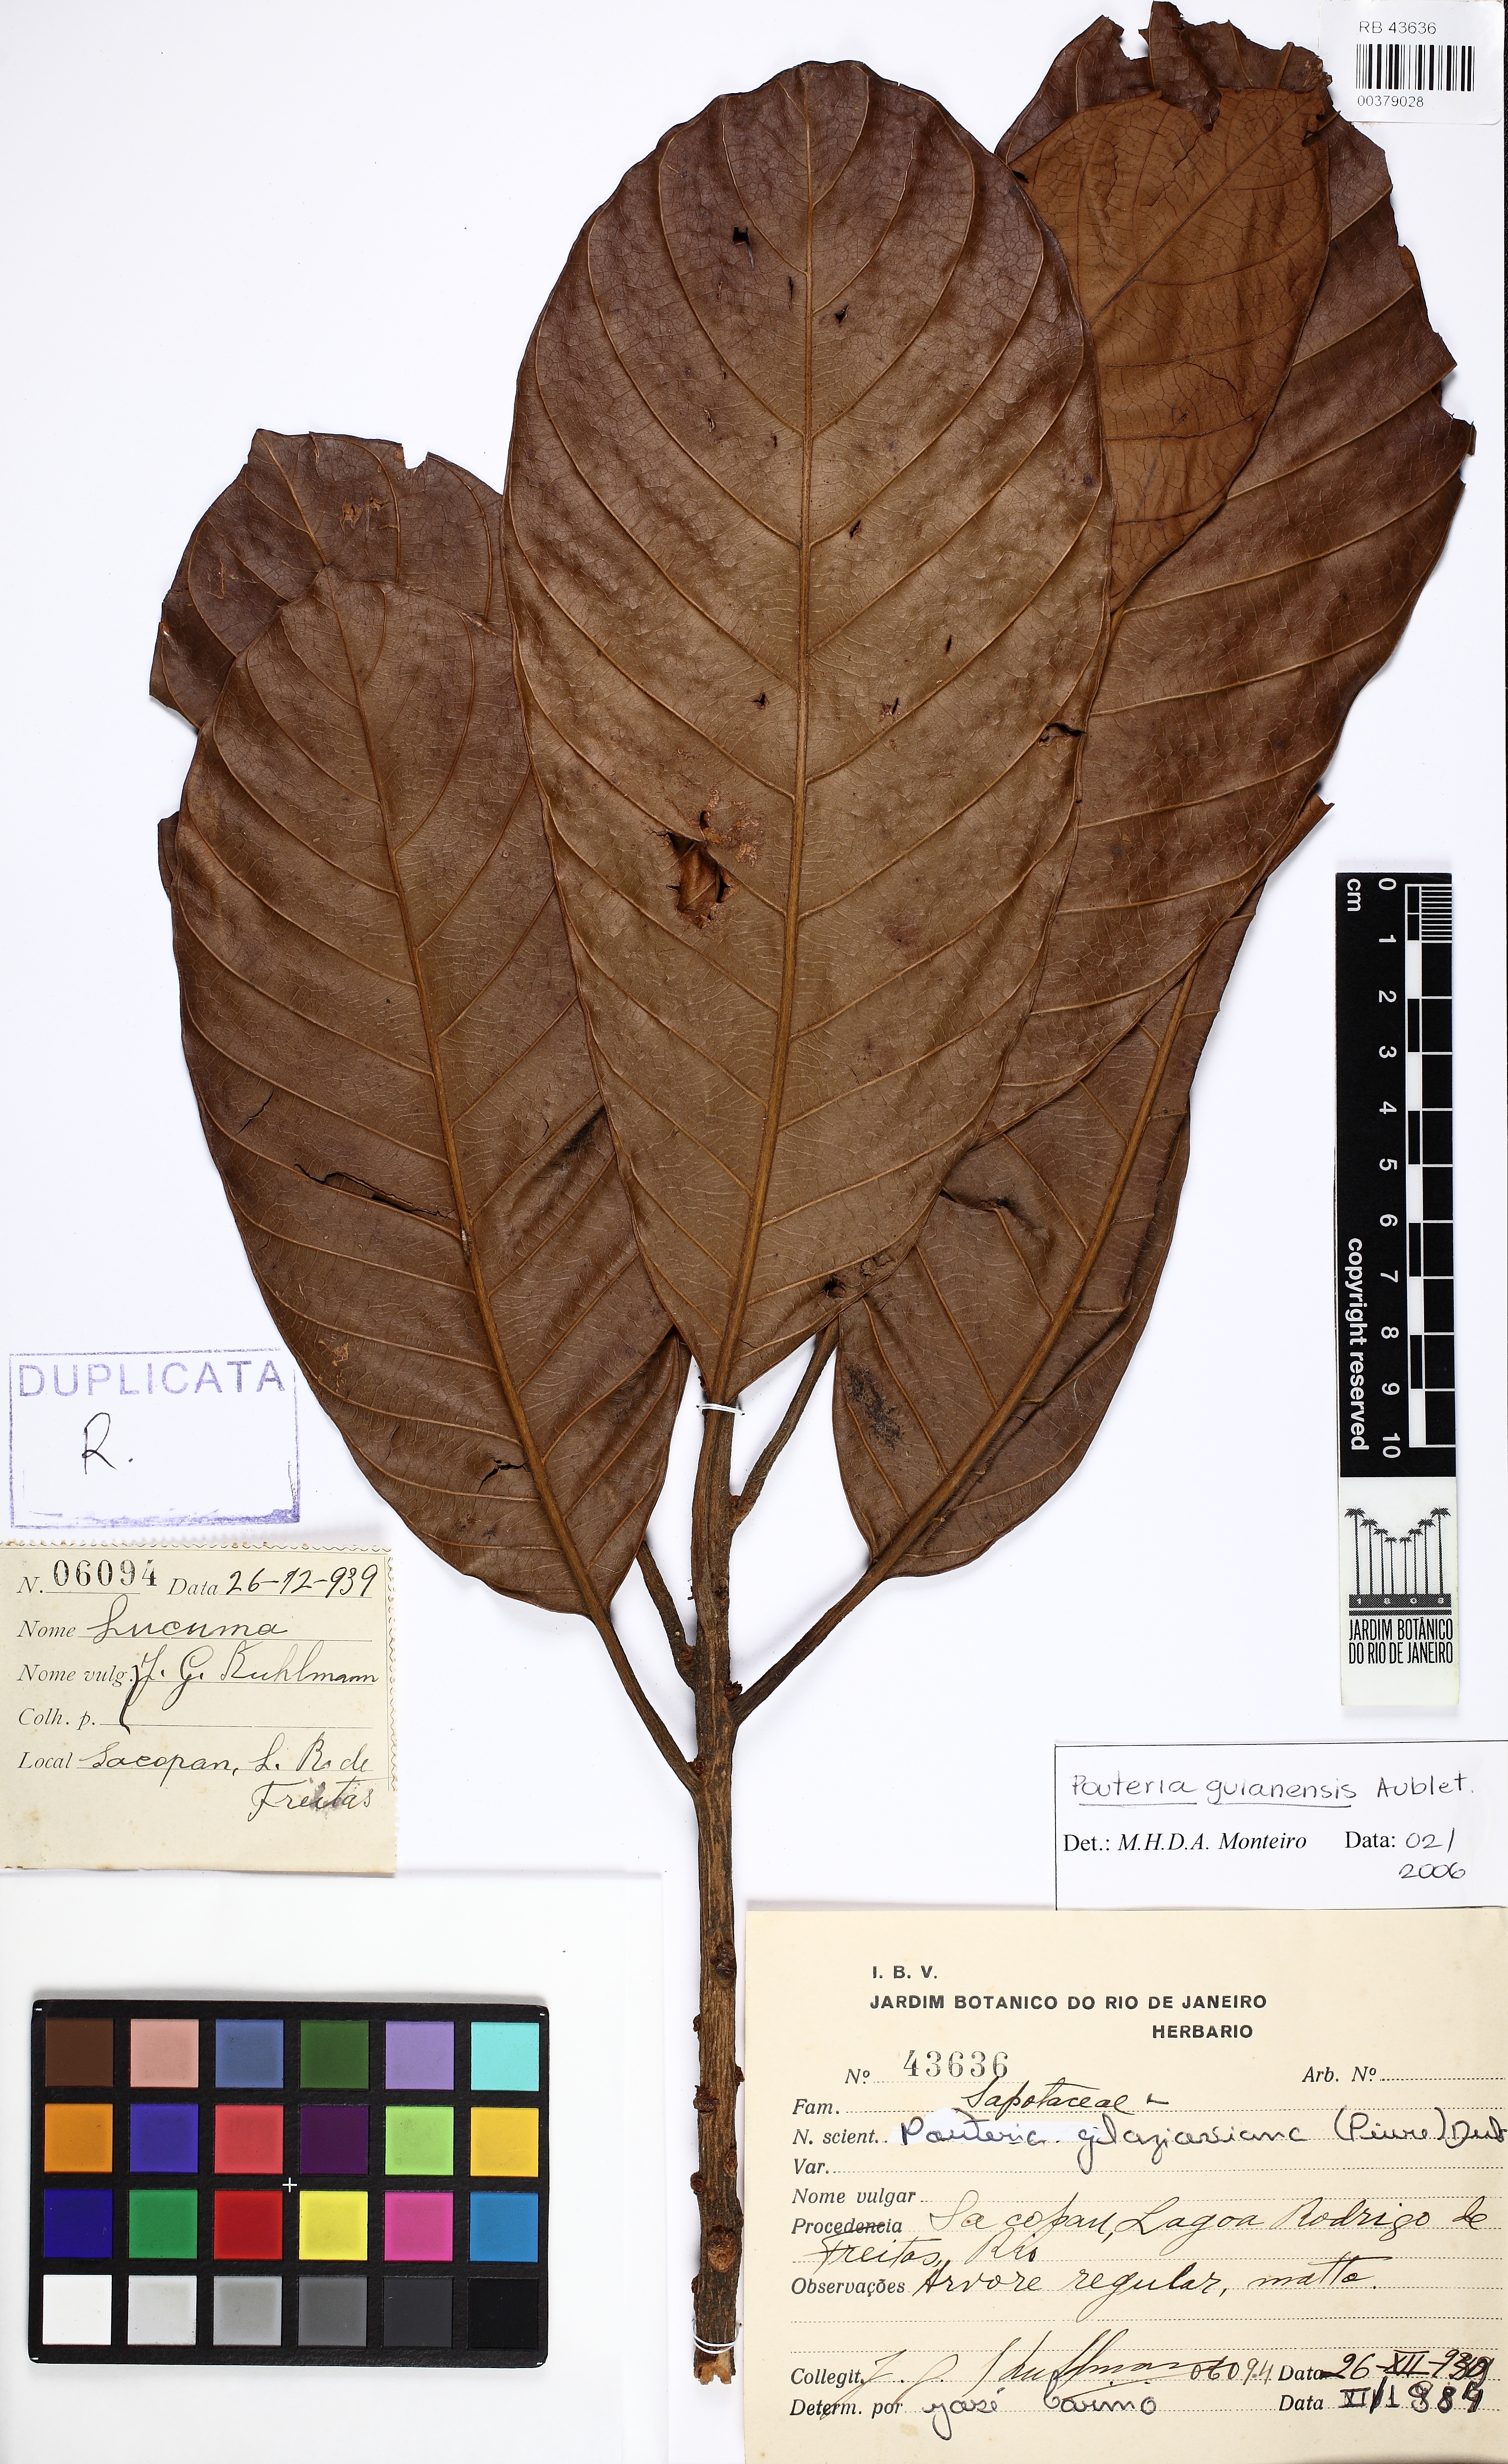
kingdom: Plantae
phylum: Tracheophyta
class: Magnoliopsida
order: Ericales
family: Sapotaceae
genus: Pouteria
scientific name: Pouteria
